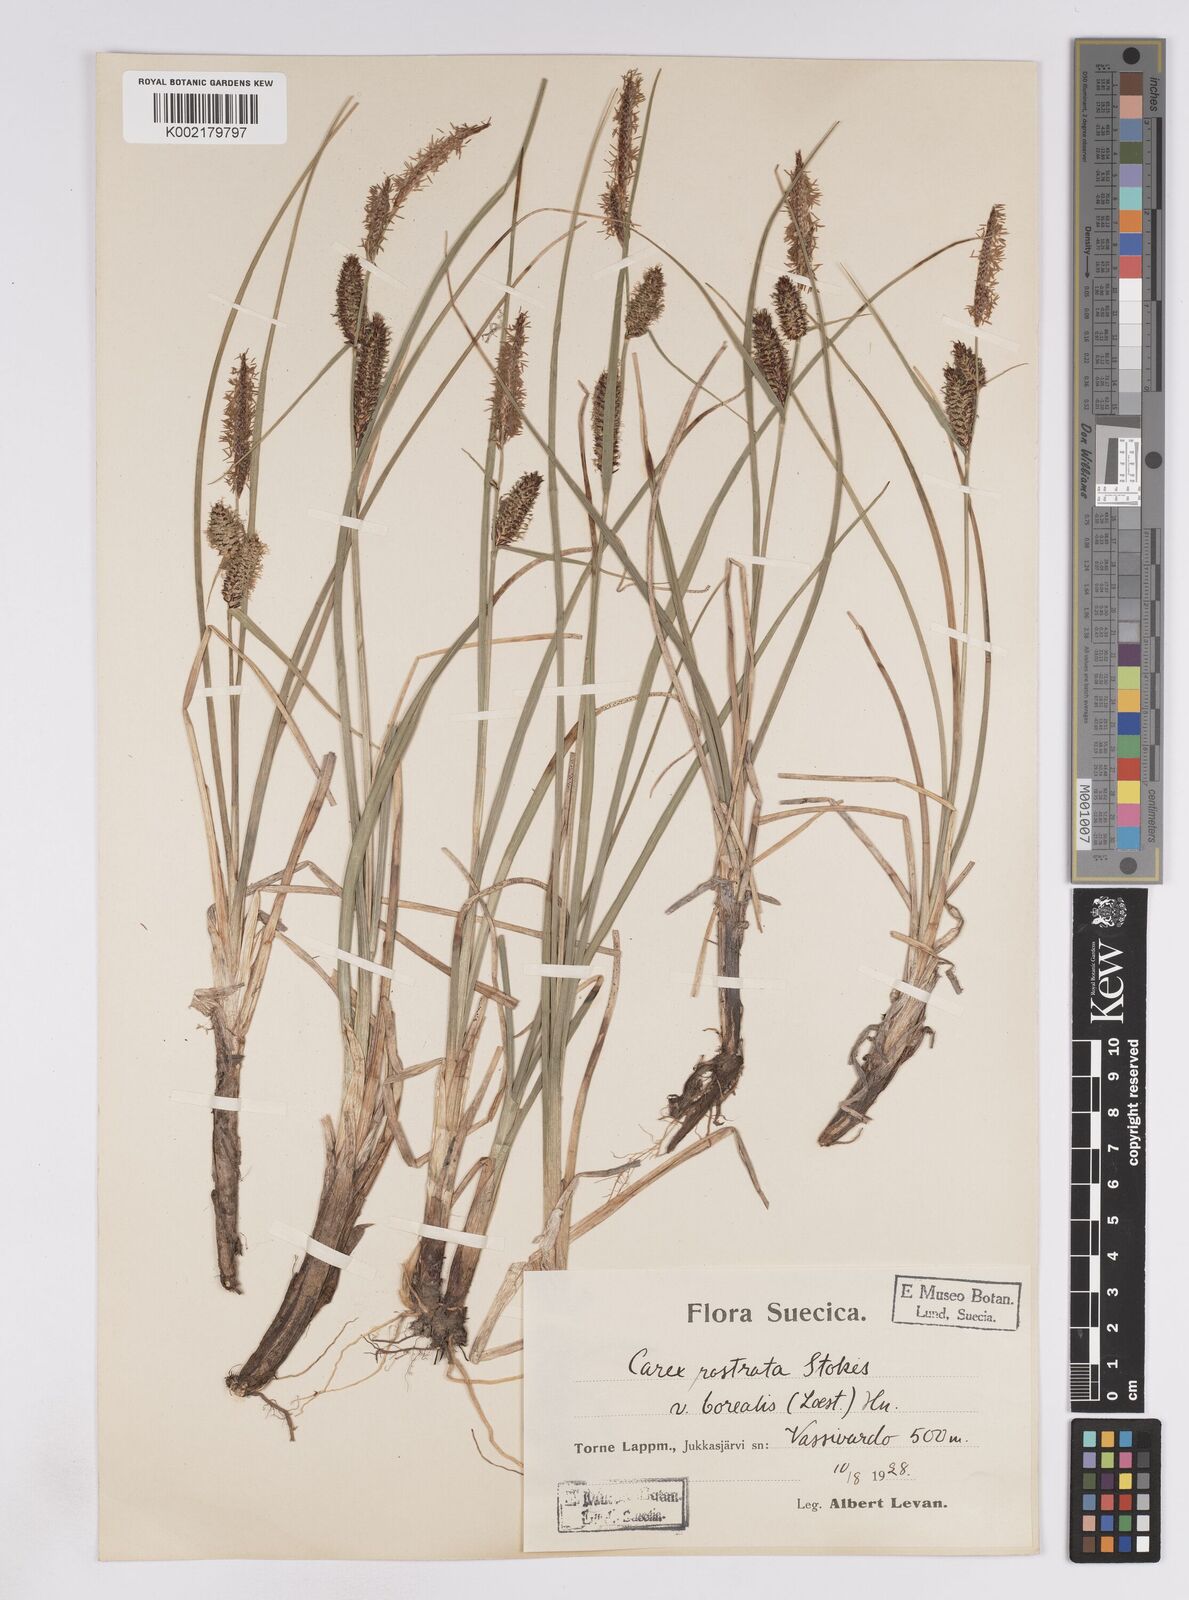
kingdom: Plantae
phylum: Tracheophyta
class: Liliopsida
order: Poales
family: Cyperaceae
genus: Carex
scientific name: Carex rostrata
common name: Bottle sedge
